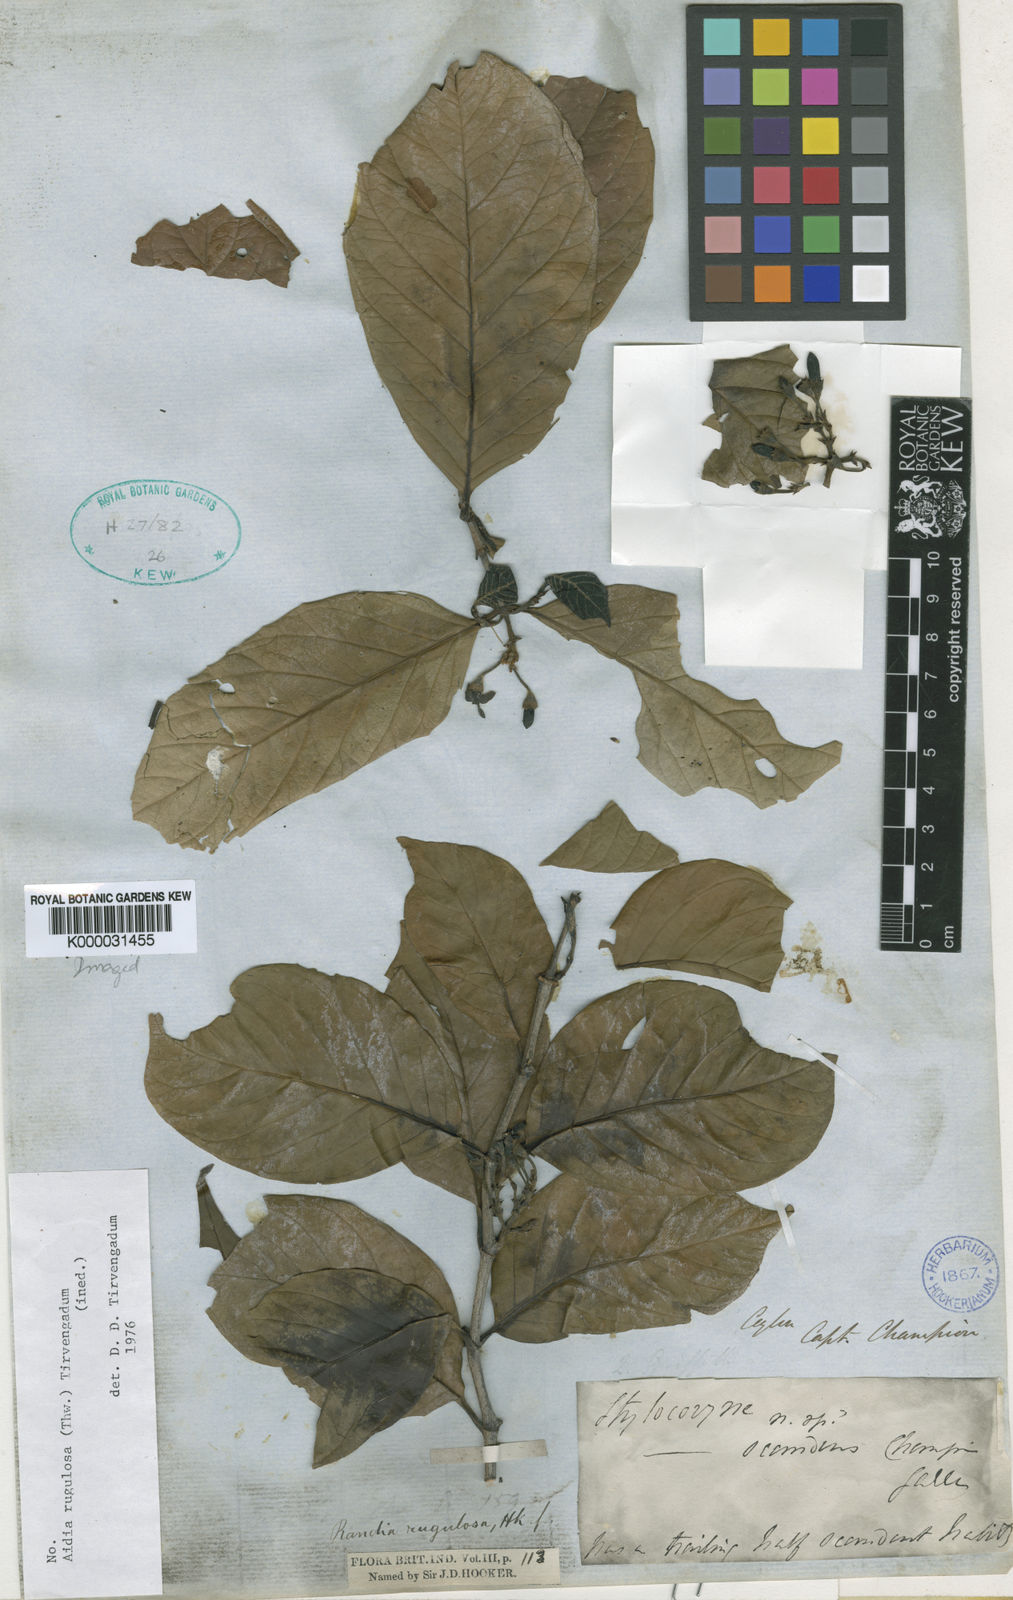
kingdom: Plantae
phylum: Tracheophyta
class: Magnoliopsida
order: Gentianales
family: Rubiaceae
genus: Oxyceros
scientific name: Oxyceros rugulosus
